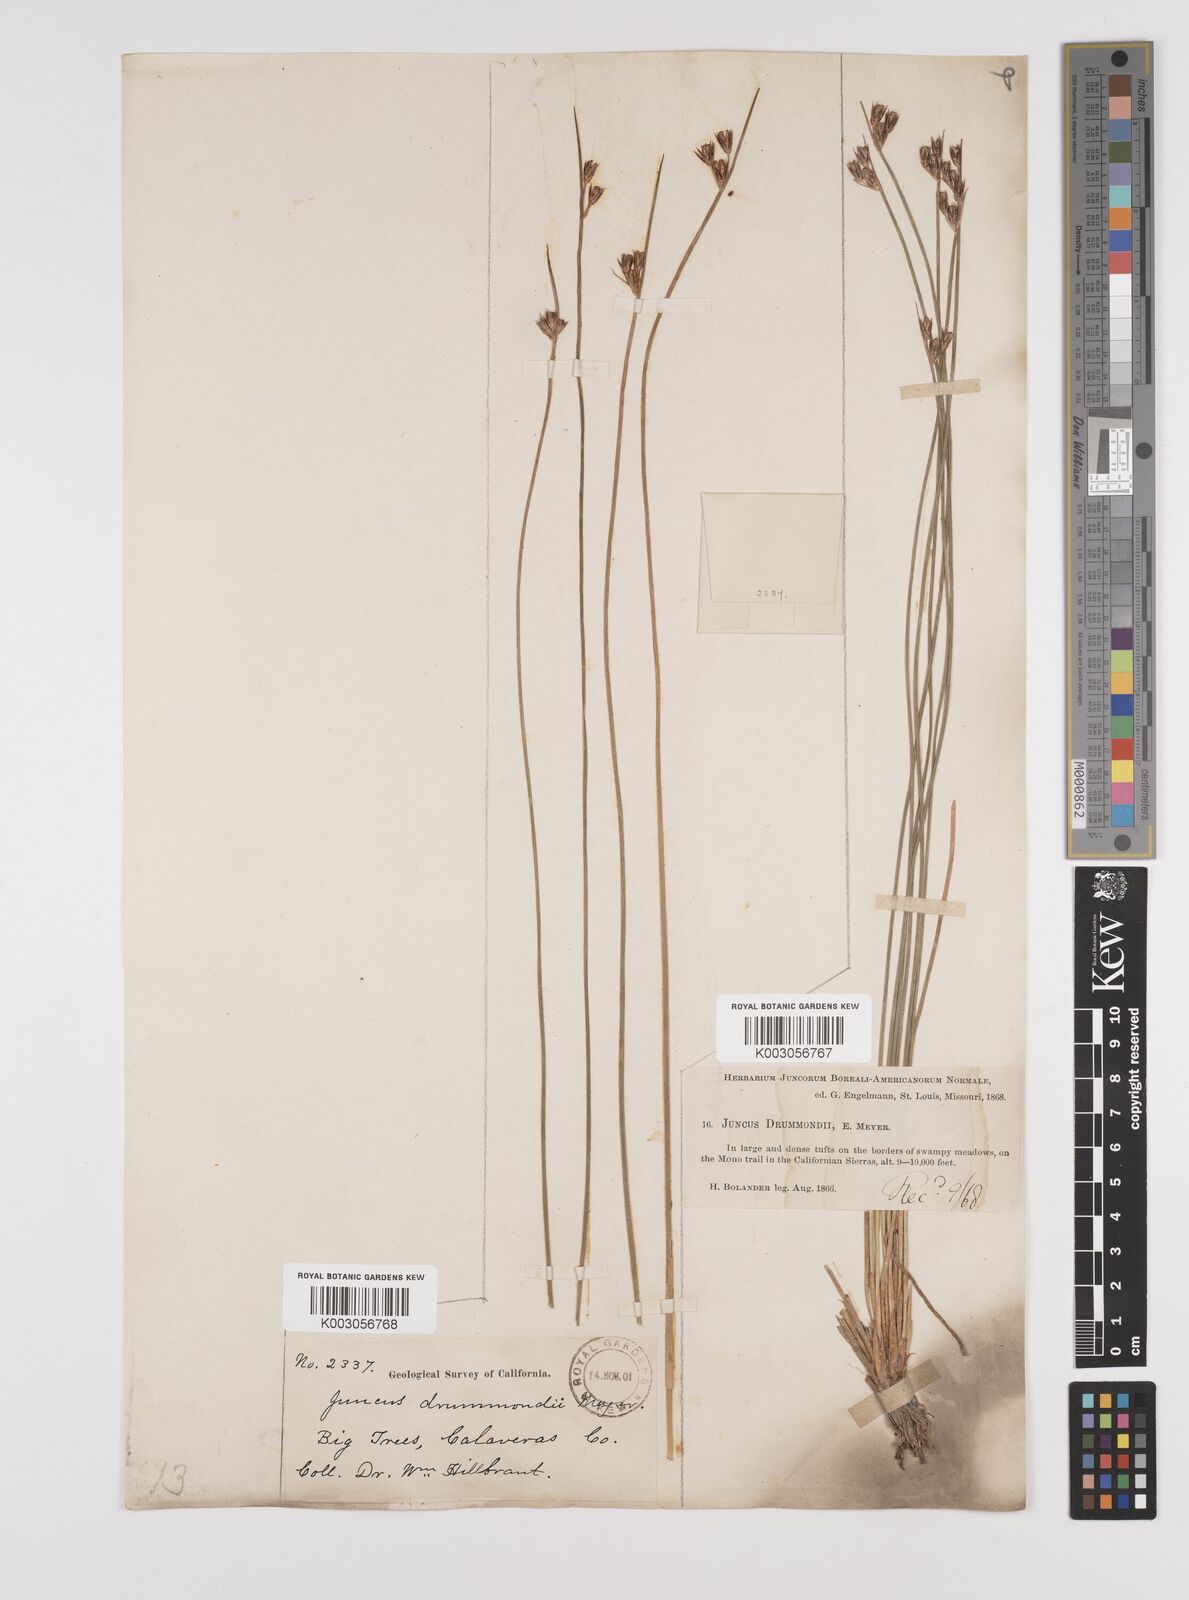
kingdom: Plantae
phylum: Tracheophyta
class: Liliopsida
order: Poales
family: Juncaceae
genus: Juncus
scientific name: Juncus drummondii
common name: Drummond's rush
